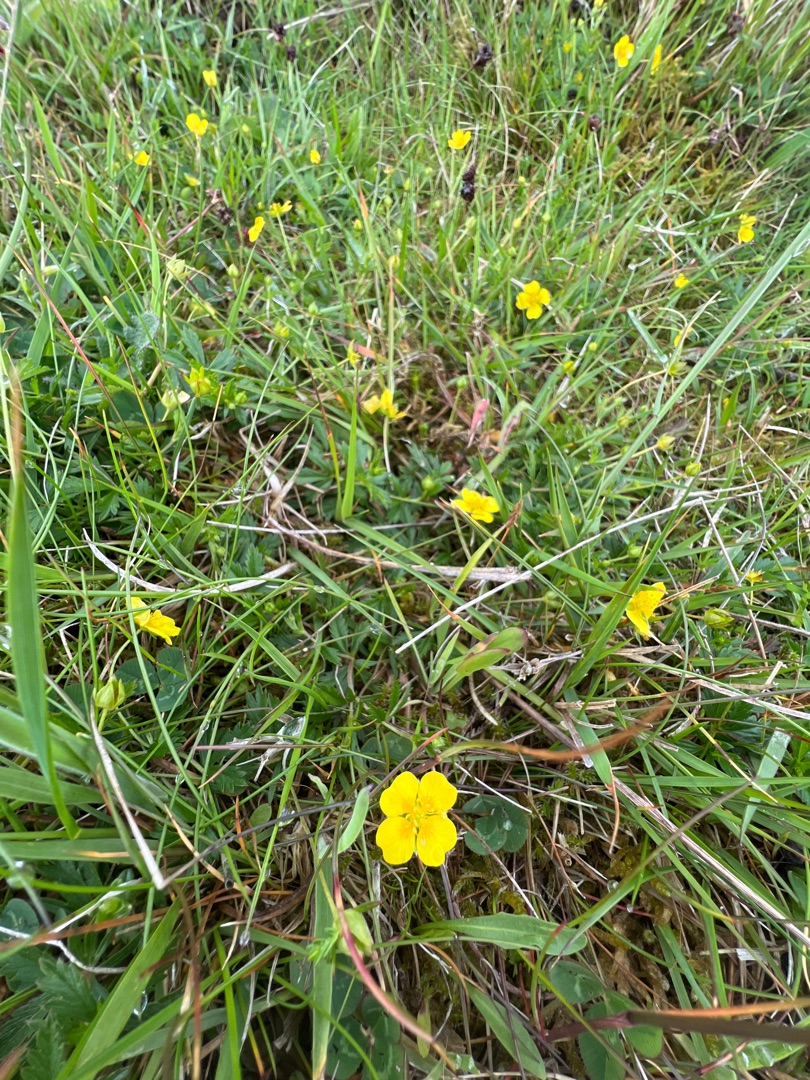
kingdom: Plantae
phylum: Tracheophyta
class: Magnoliopsida
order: Rosales
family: Rosaceae
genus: Potentilla
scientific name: Potentilla erecta
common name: Tormentil
